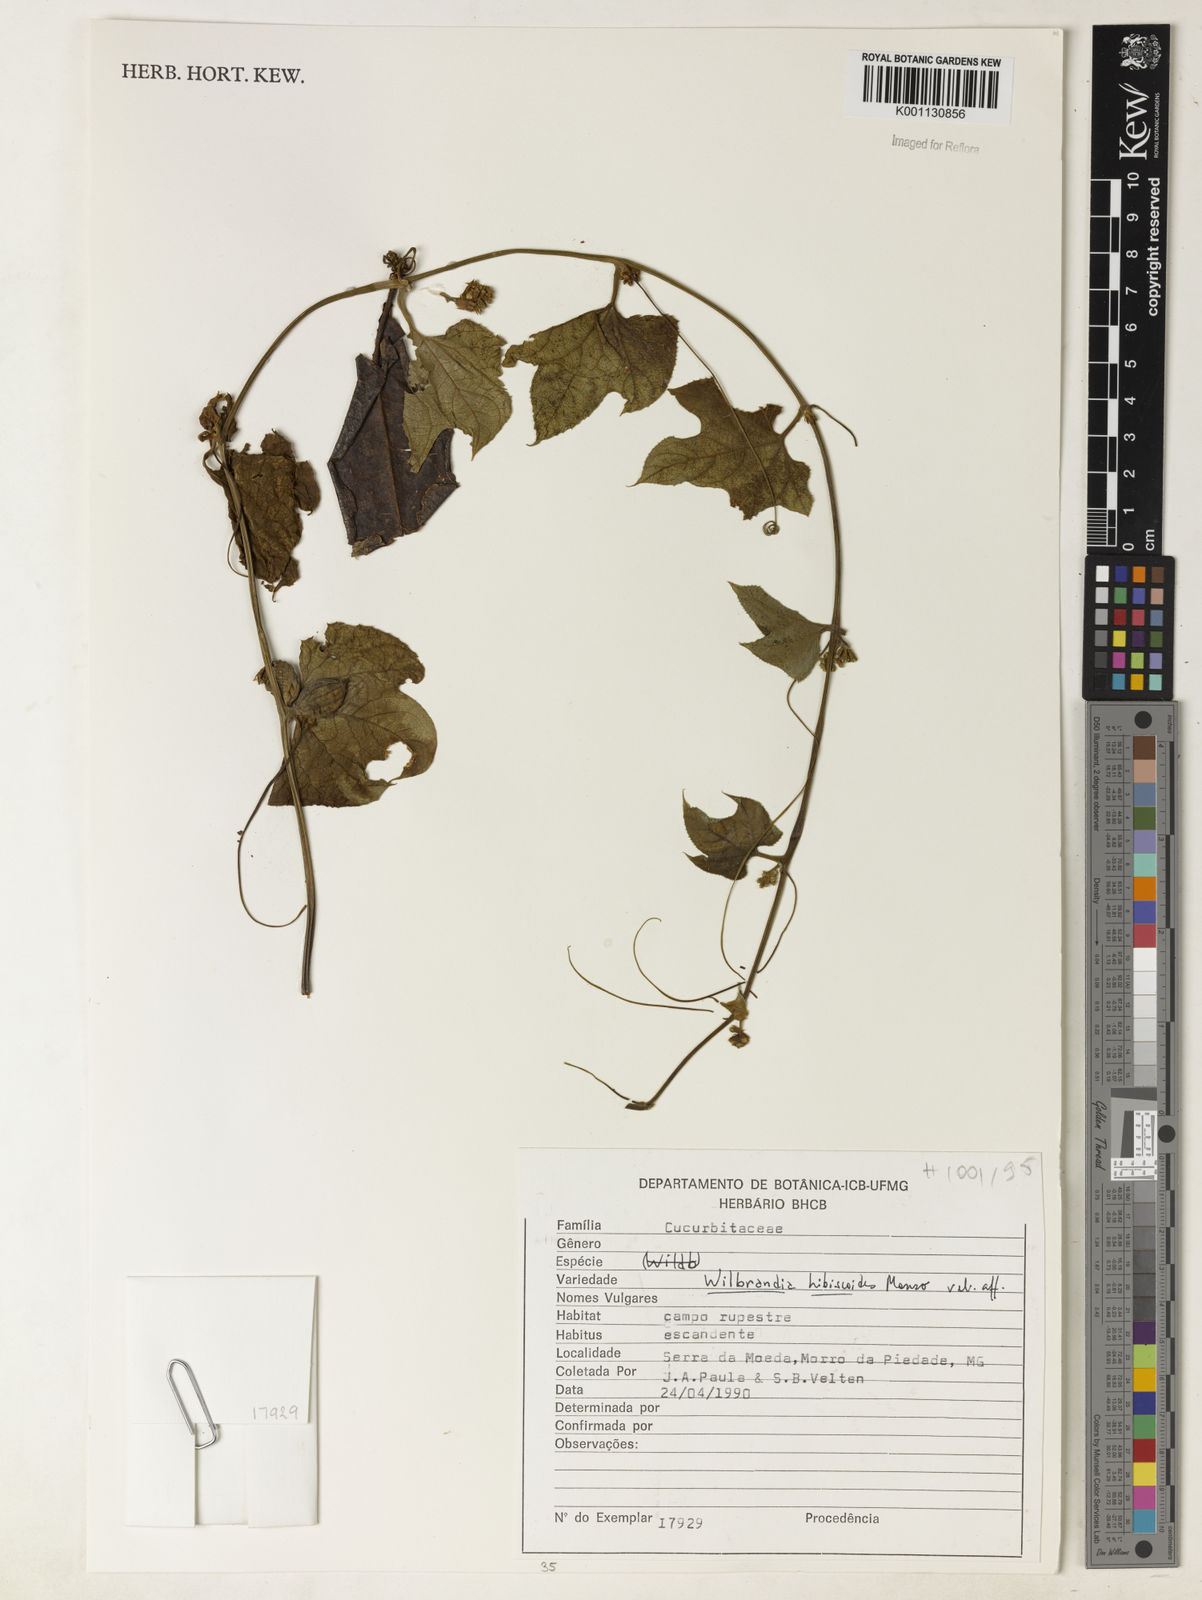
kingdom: Plantae
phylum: Tracheophyta
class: Magnoliopsida
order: Cucurbitales
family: Cucurbitaceae
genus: Wilbrandia
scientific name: Wilbrandia hibiscoides
